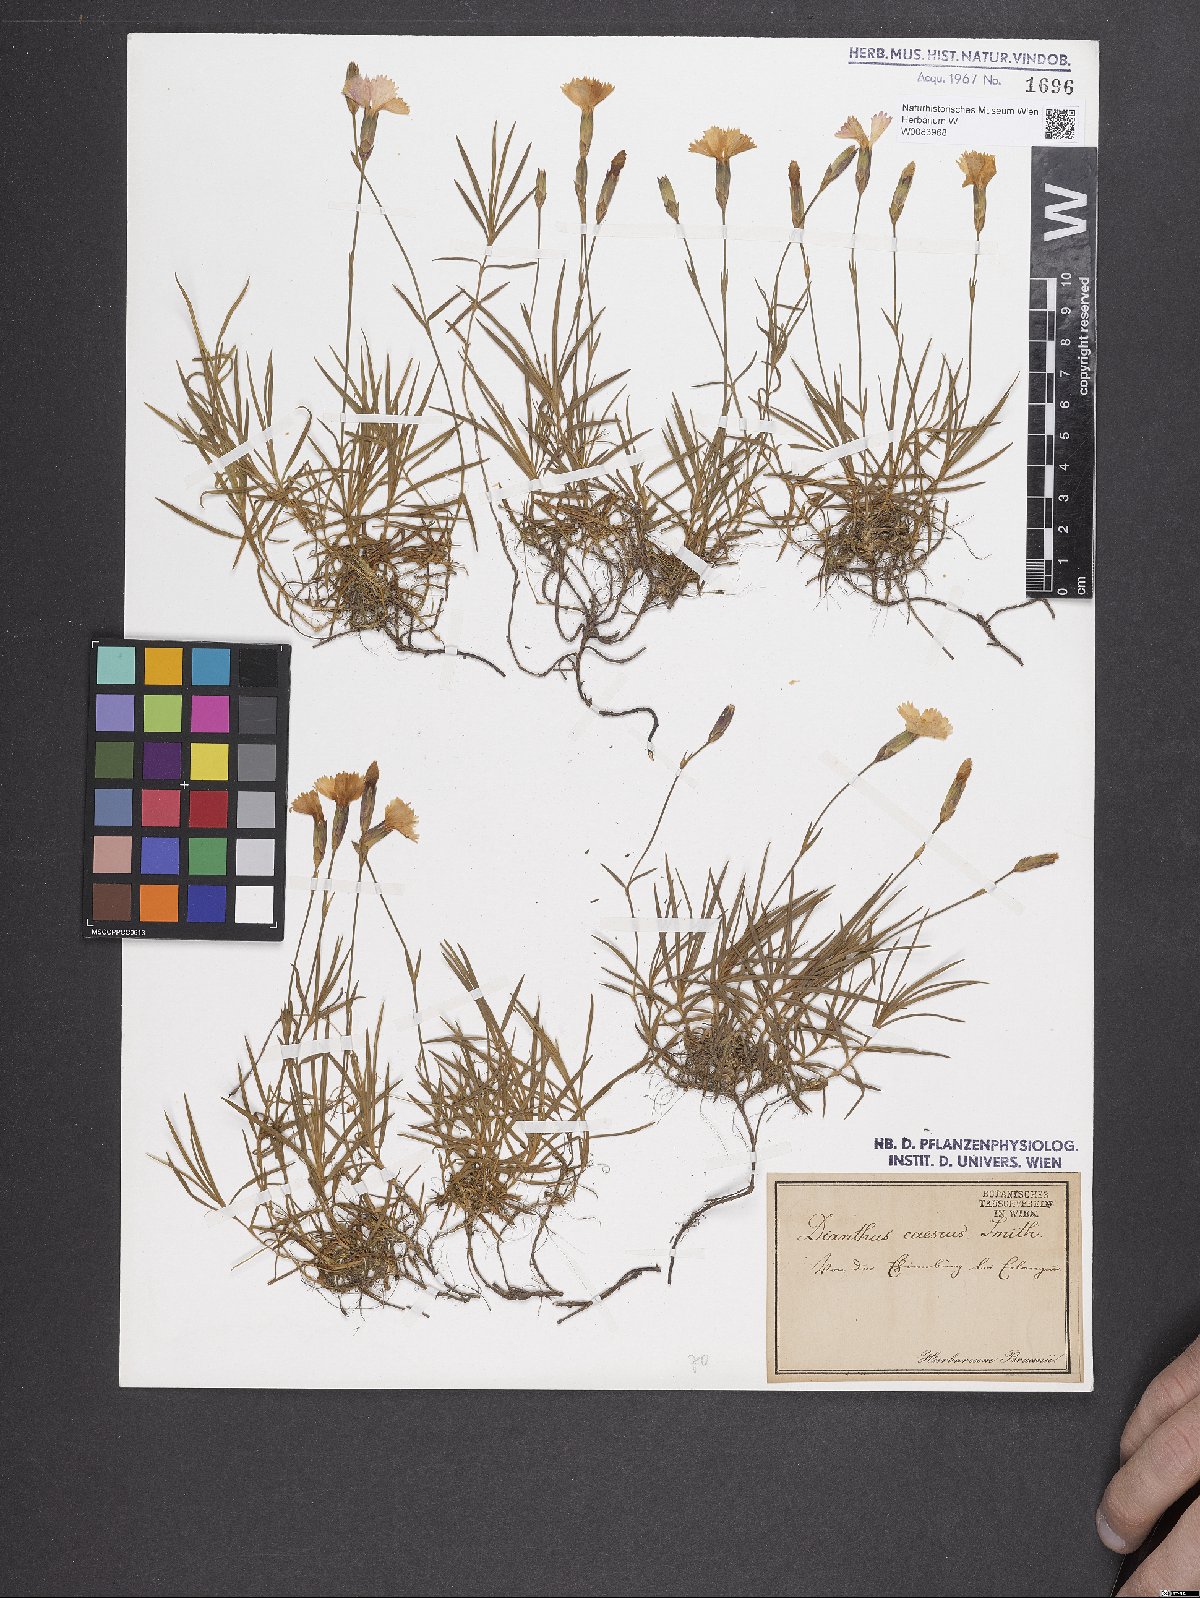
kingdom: Plantae
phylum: Tracheophyta
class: Magnoliopsida
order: Caryophyllales
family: Caryophyllaceae
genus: Dianthus
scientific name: Dianthus gratianopolitanus
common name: Cheddar pink
